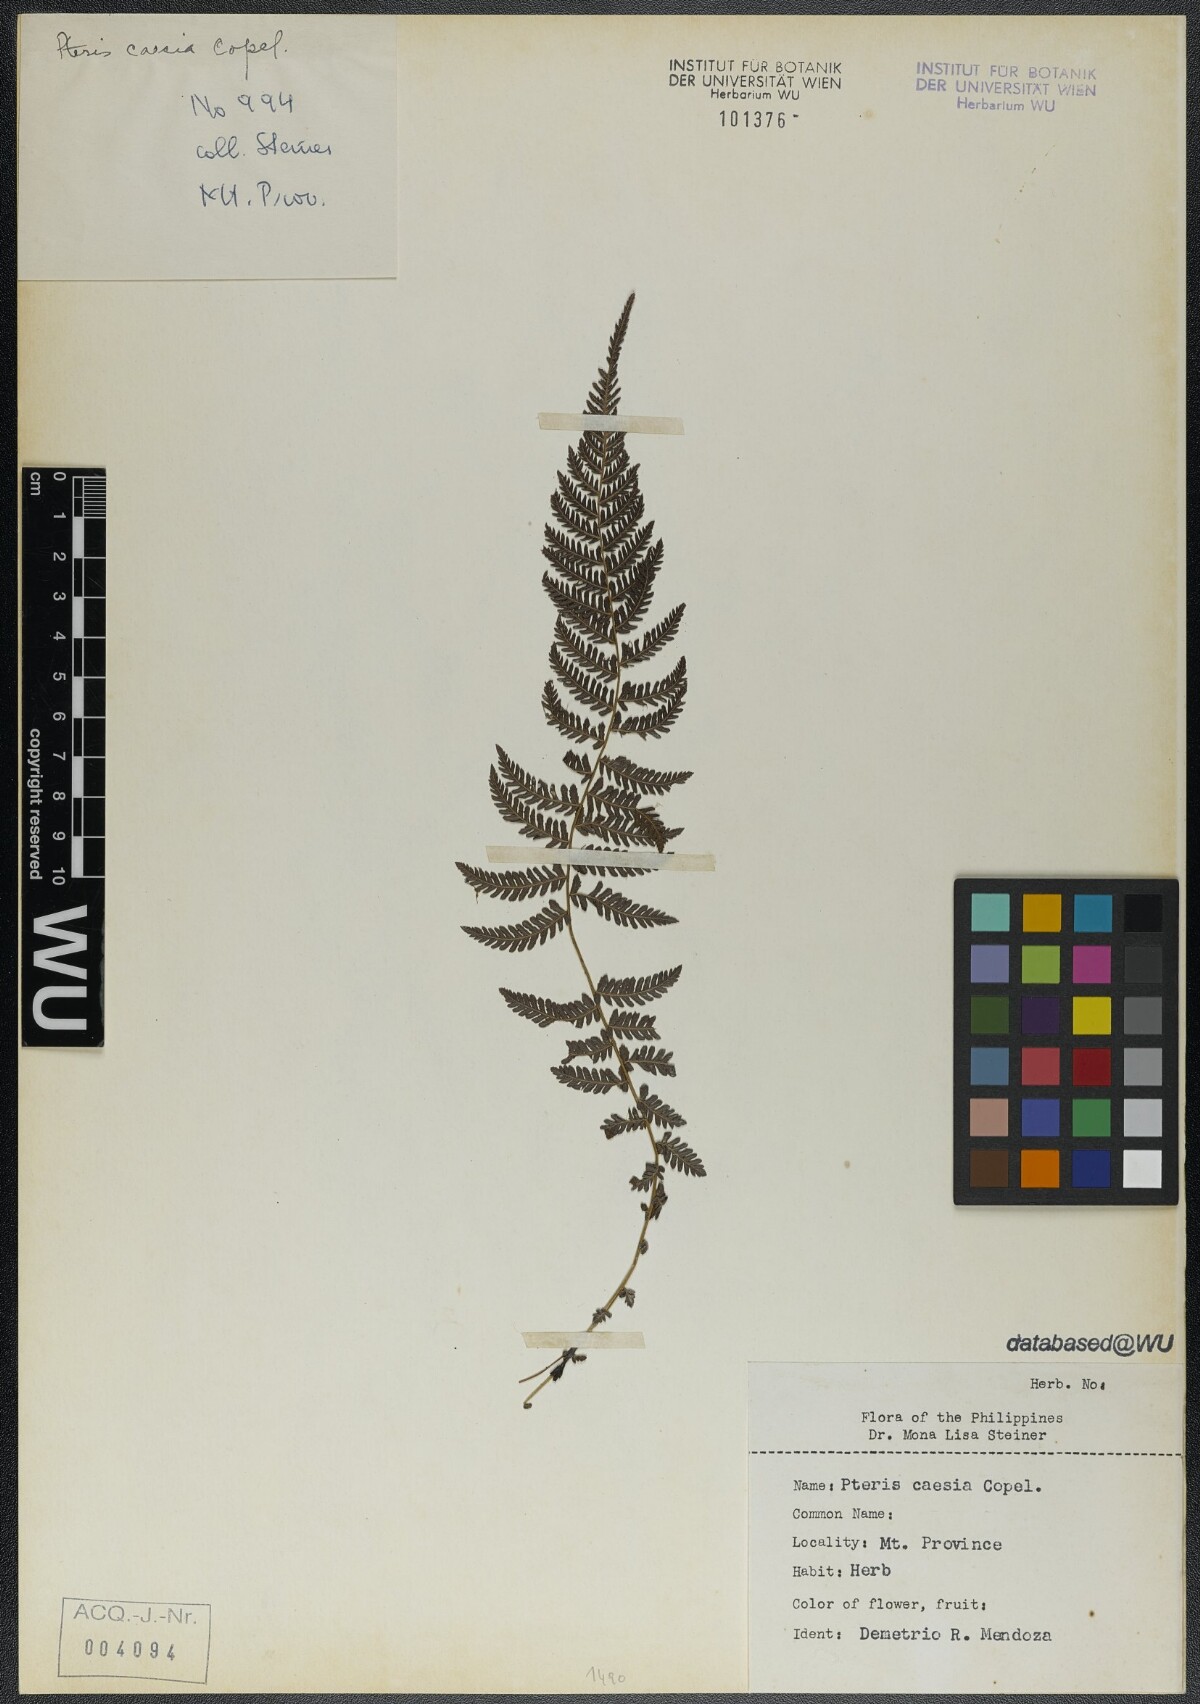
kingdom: Plantae
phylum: Tracheophyta
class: Polypodiopsida
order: Polypodiales
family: Pteridaceae
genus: Pteris
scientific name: Pteris oppositipinnata
